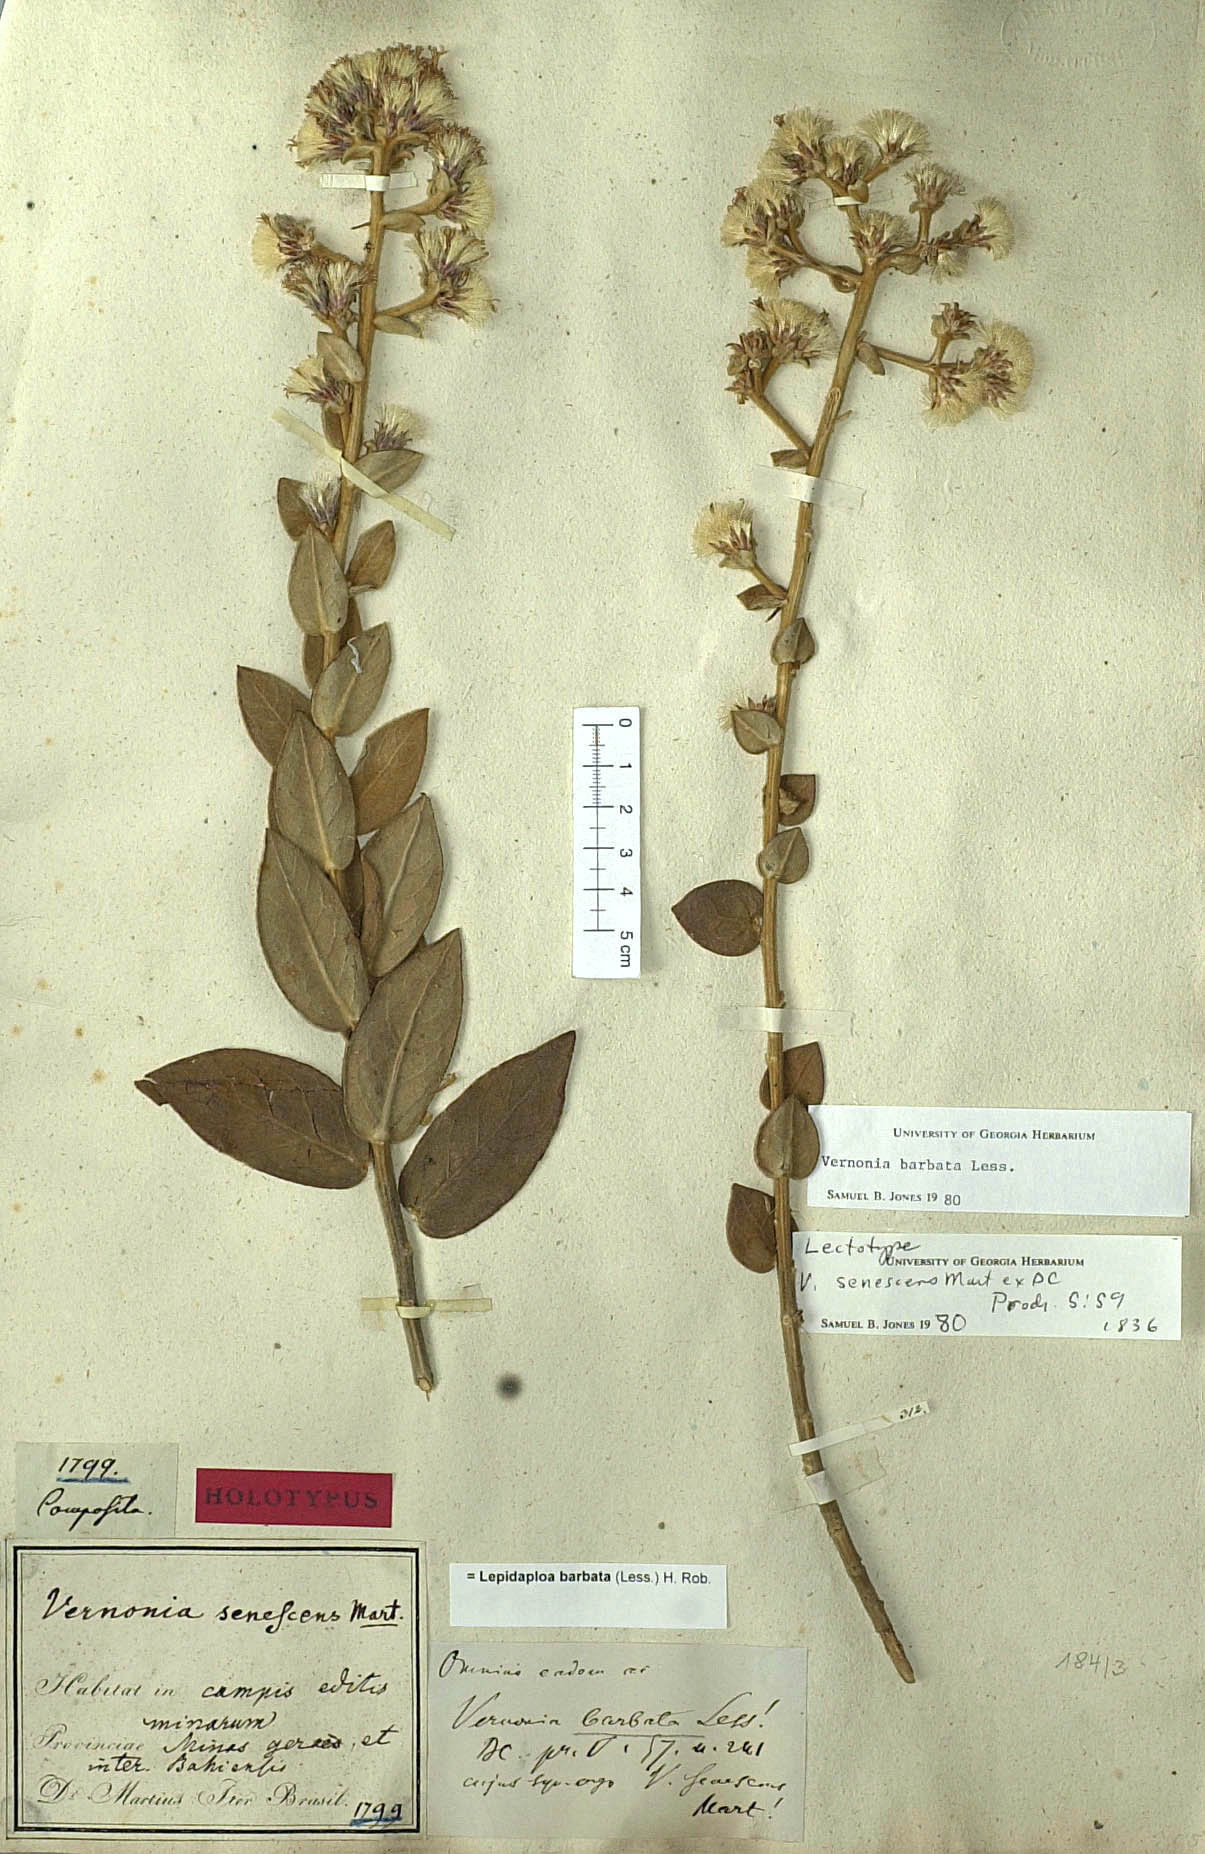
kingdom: Plantae
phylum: Tracheophyta
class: Magnoliopsida
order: Asterales
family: Asteraceae
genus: Lepidaploa
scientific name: Lepidaploa barbata
